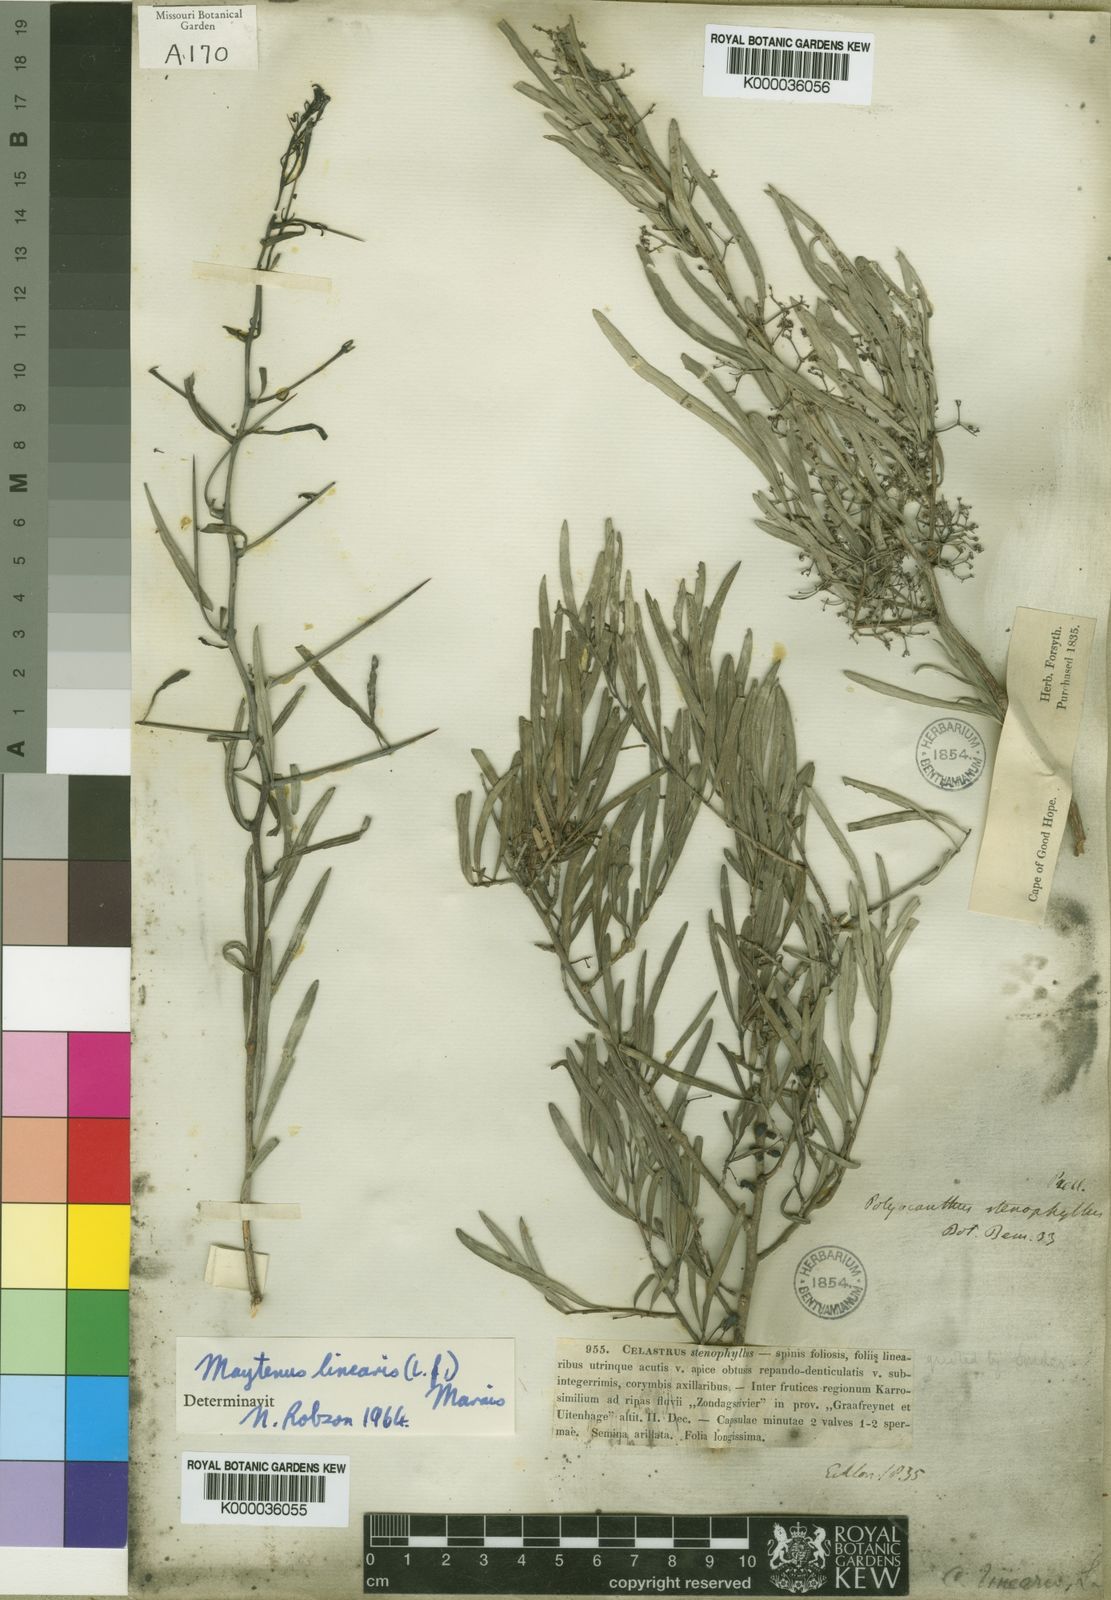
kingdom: Plantae
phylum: Tracheophyta
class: Magnoliopsida
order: Celastrales
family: Celastraceae
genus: Gymnosporia
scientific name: Gymnosporia linearis
